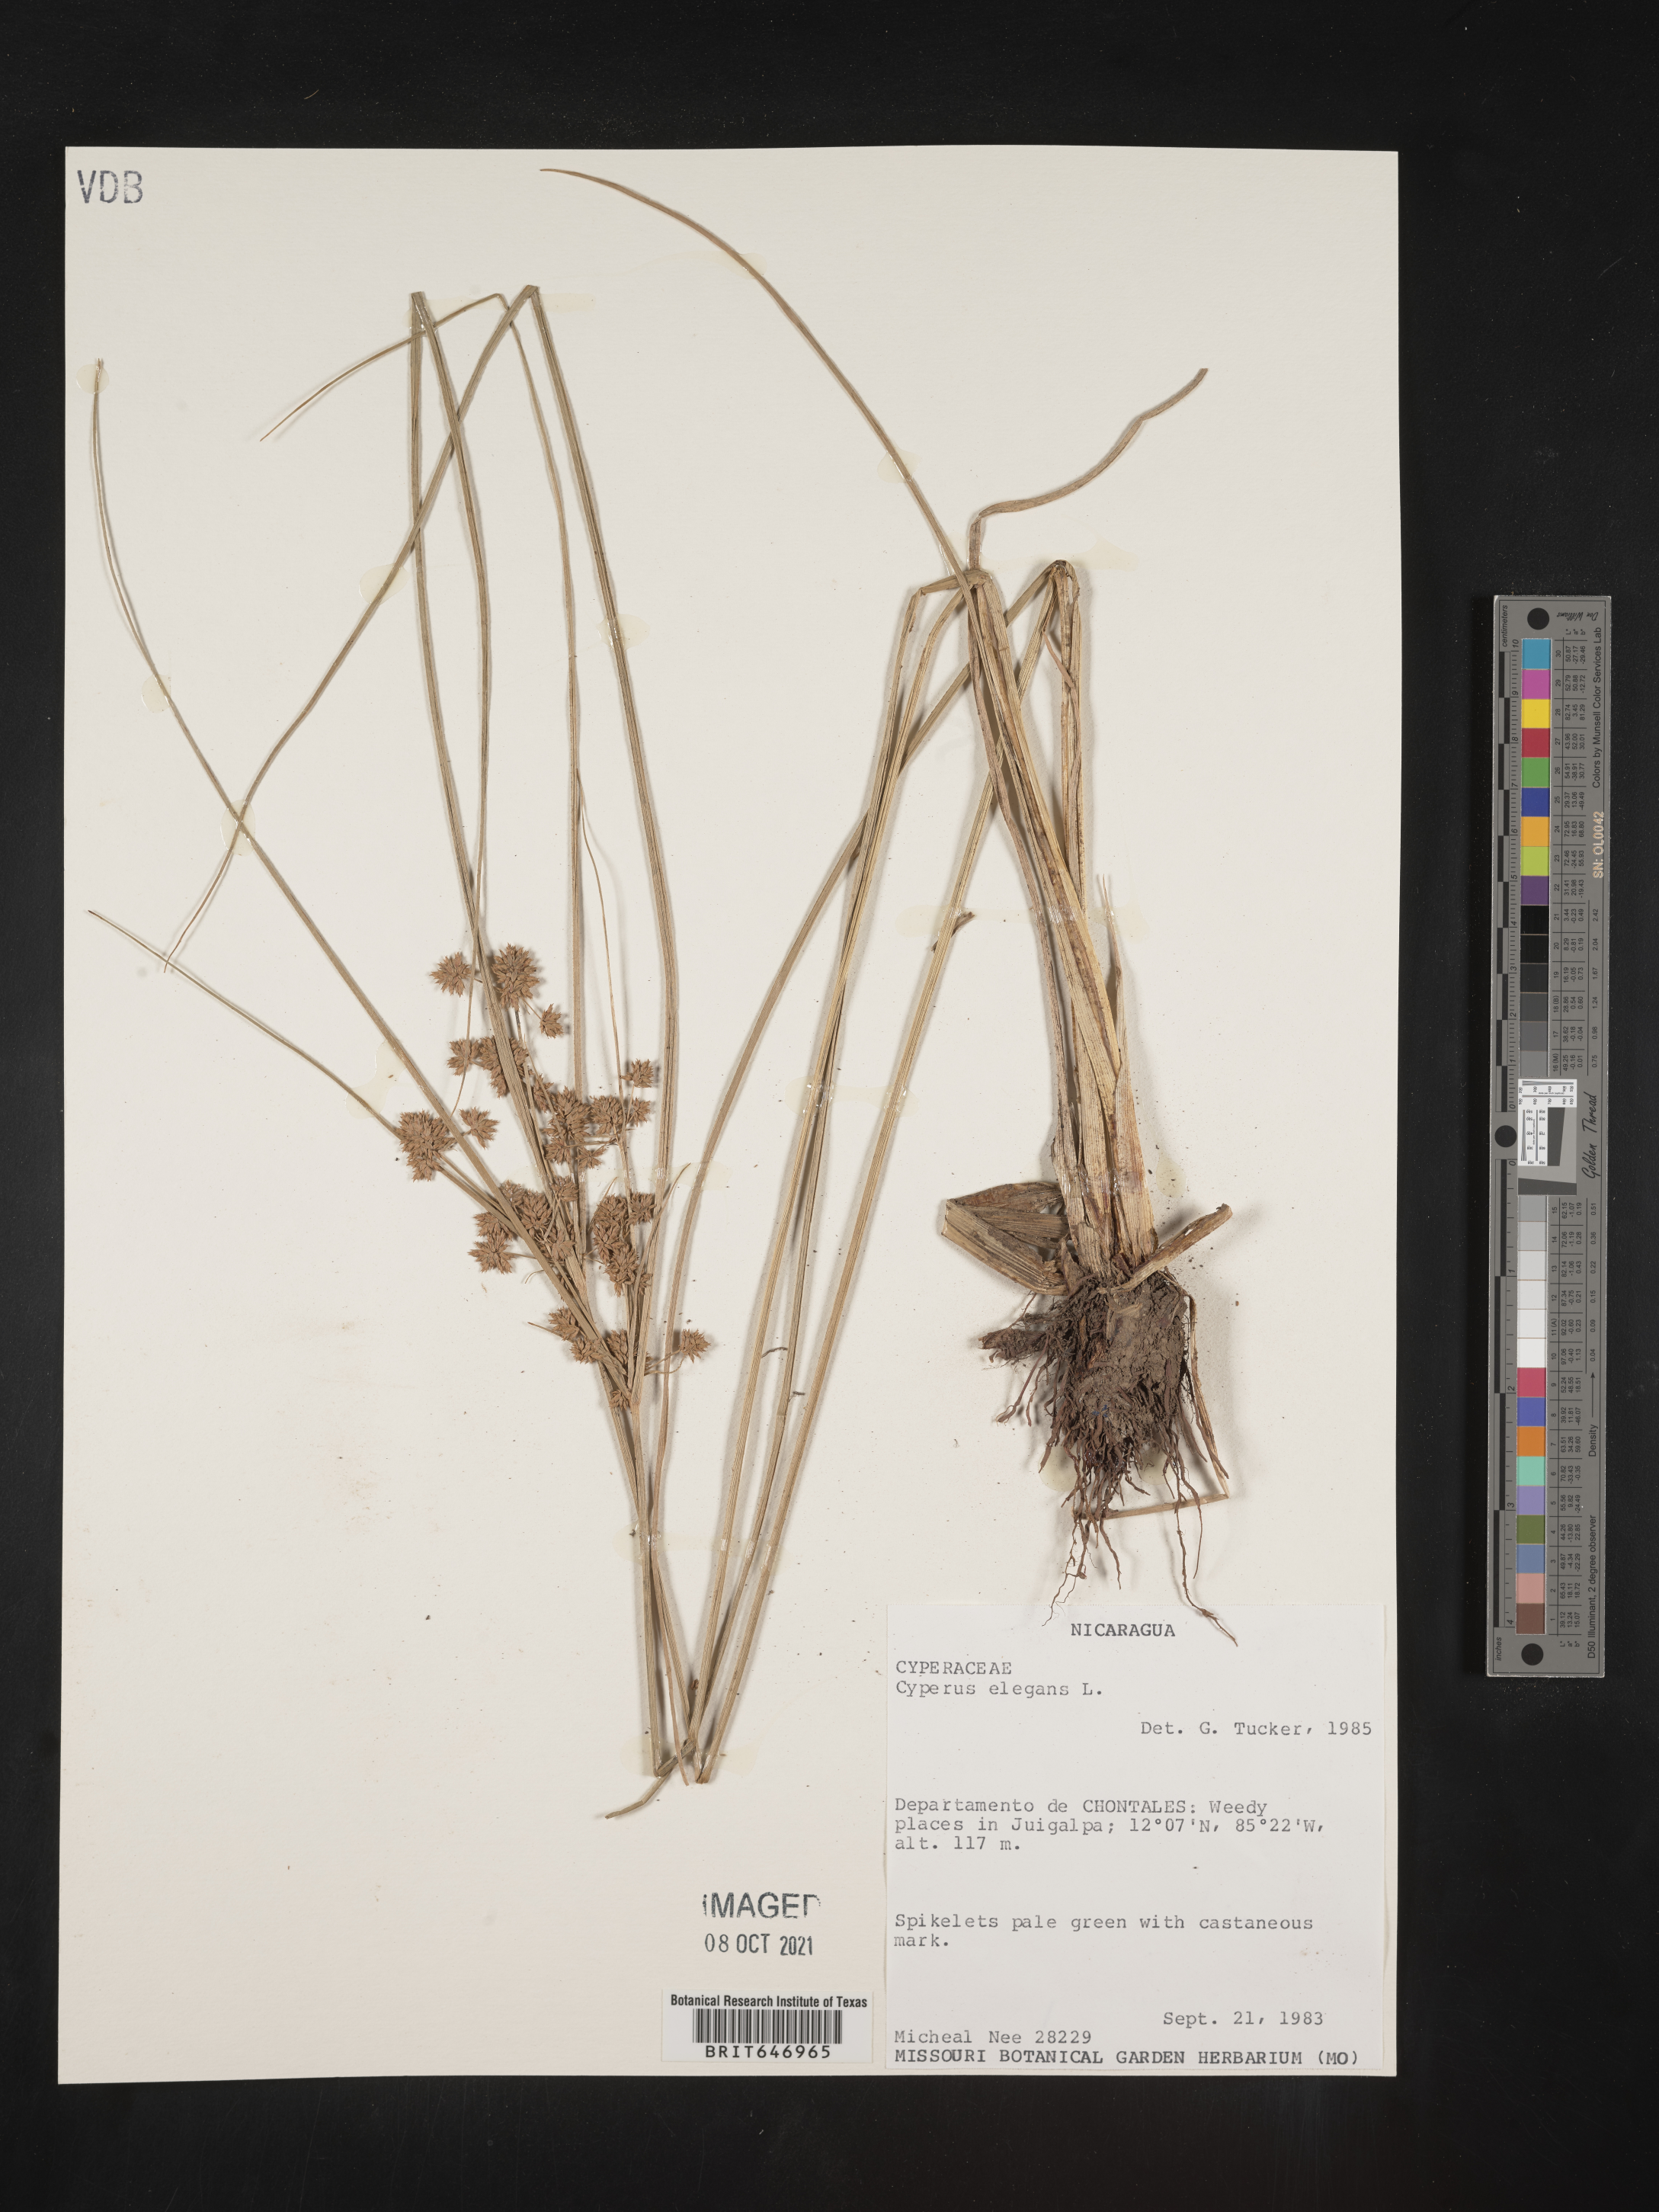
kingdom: Plantae
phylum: Tracheophyta
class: Liliopsida
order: Poales
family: Cyperaceae
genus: Cyperus
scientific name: Cyperus elegans
